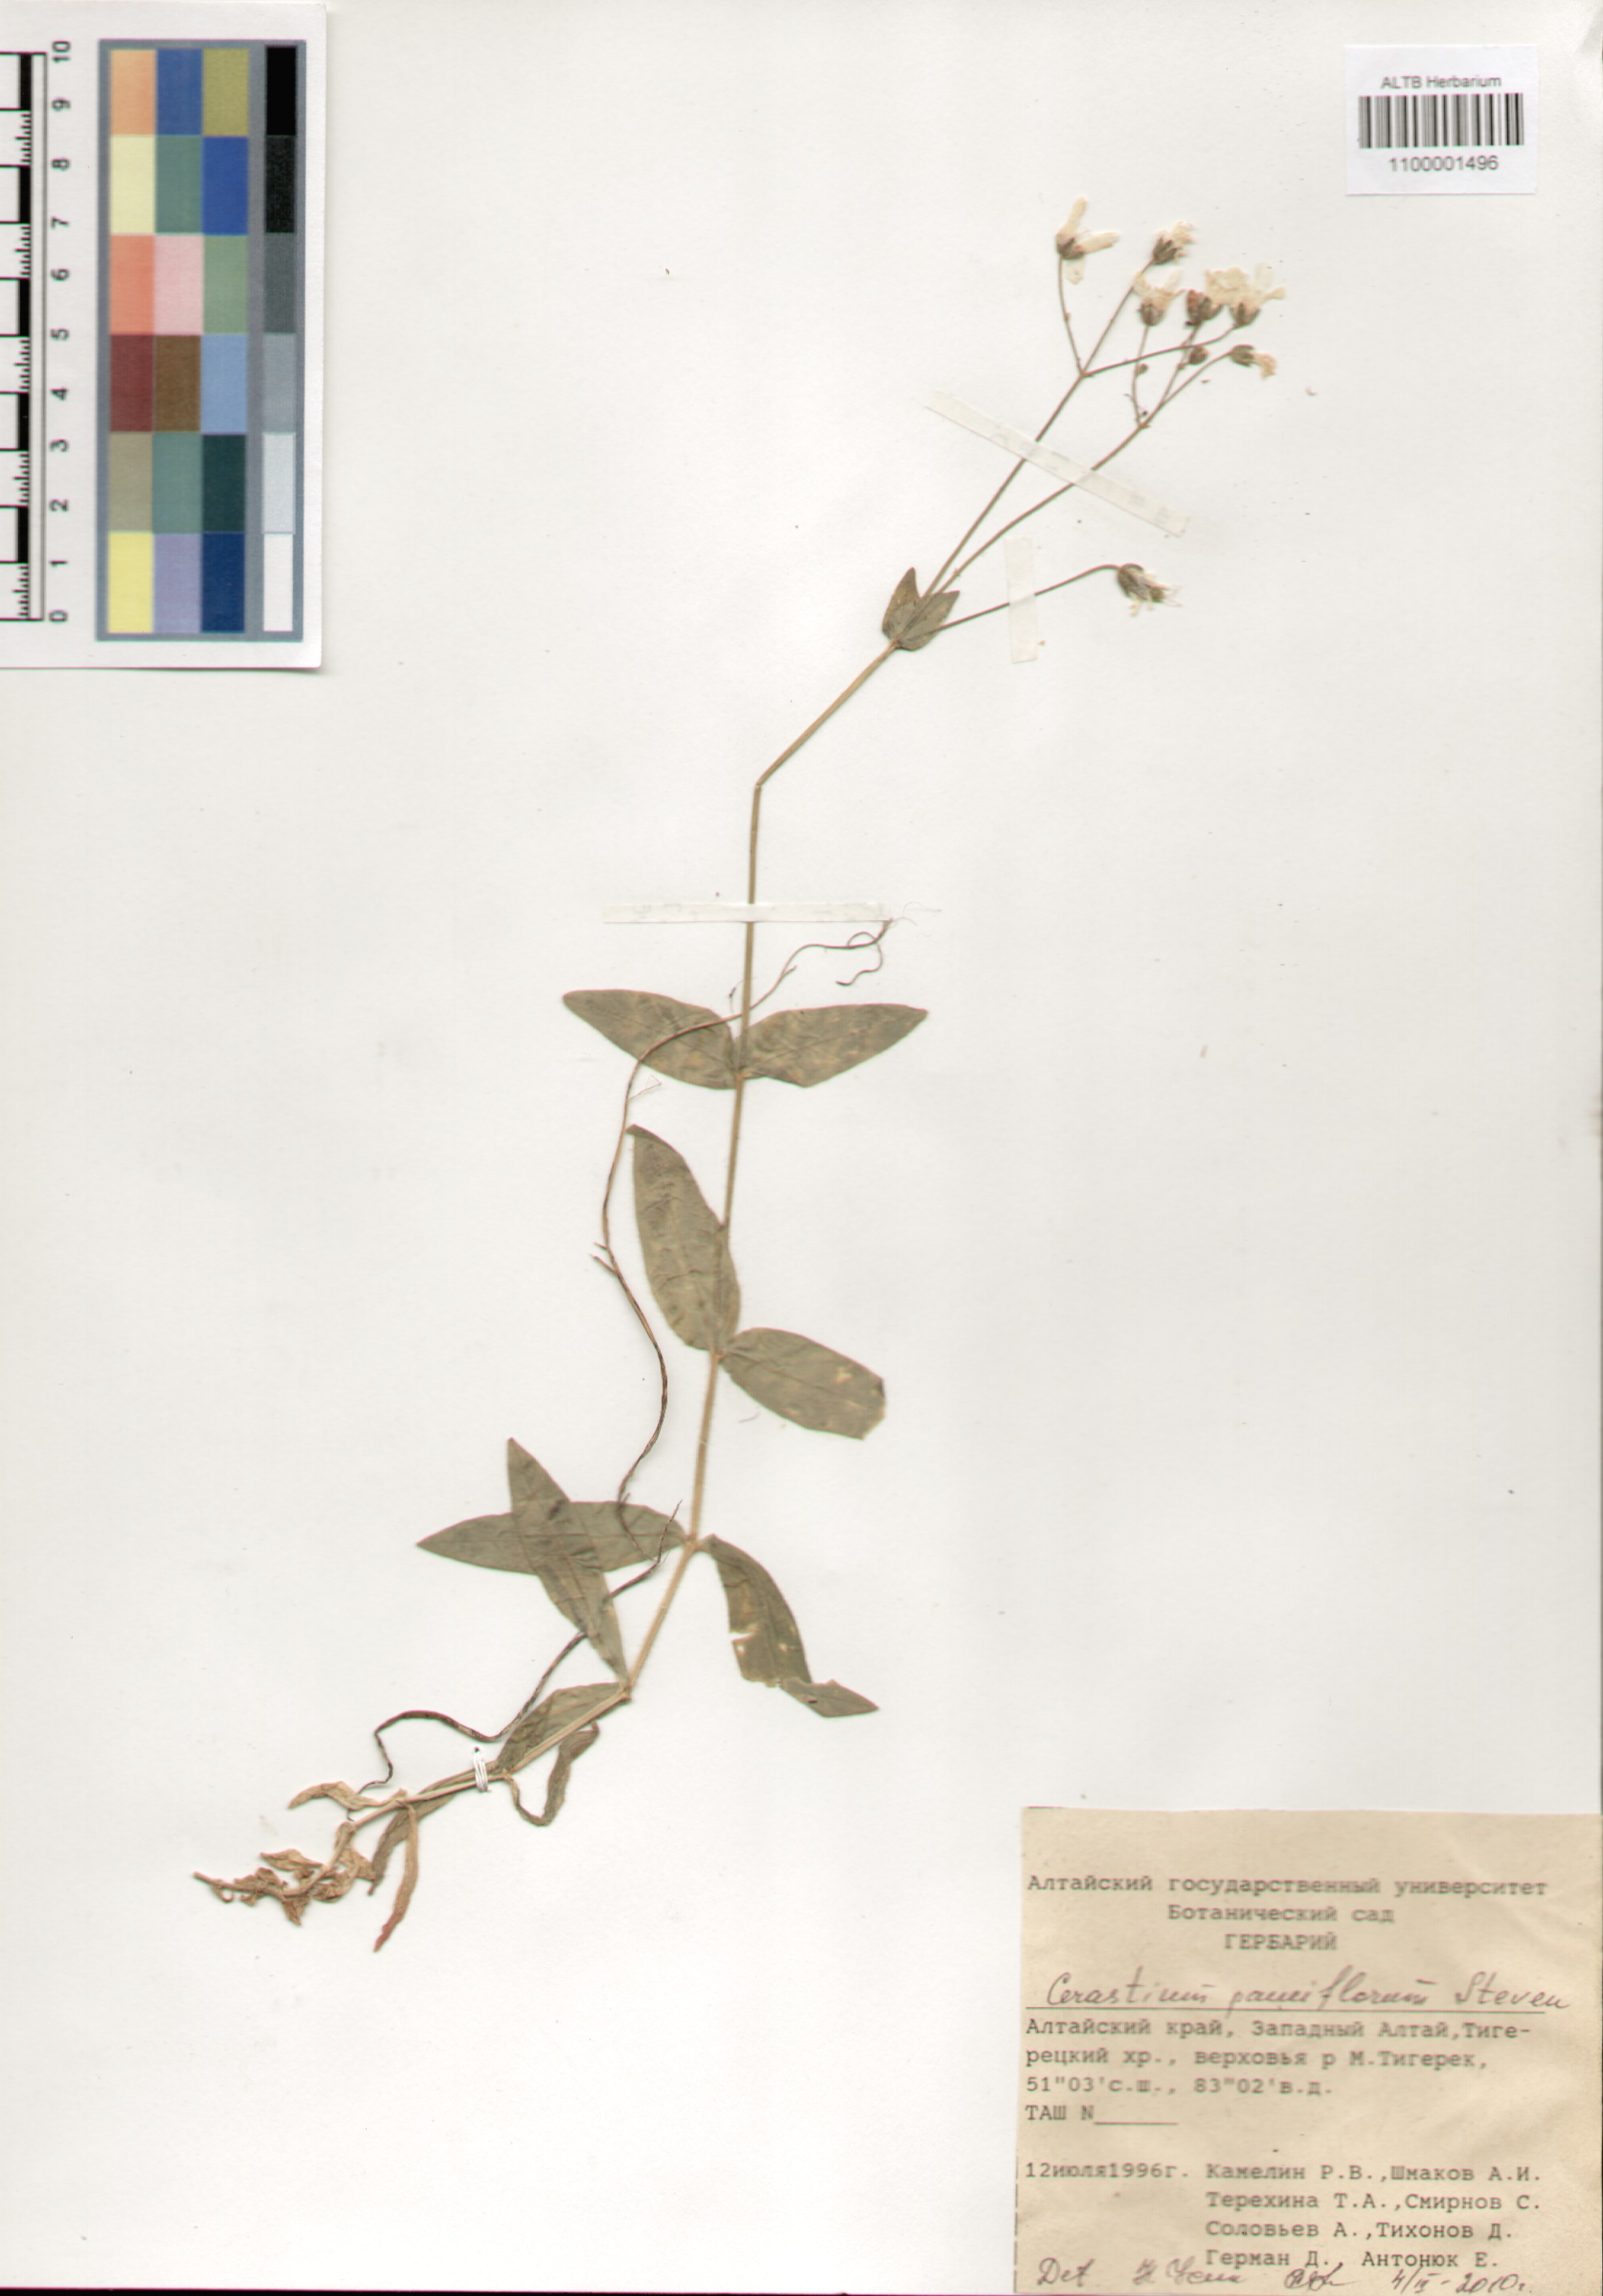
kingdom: Plantae
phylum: Tracheophyta
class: Magnoliopsida
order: Caryophyllales
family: Caryophyllaceae
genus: Cerastium
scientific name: Cerastium pauciflorum
